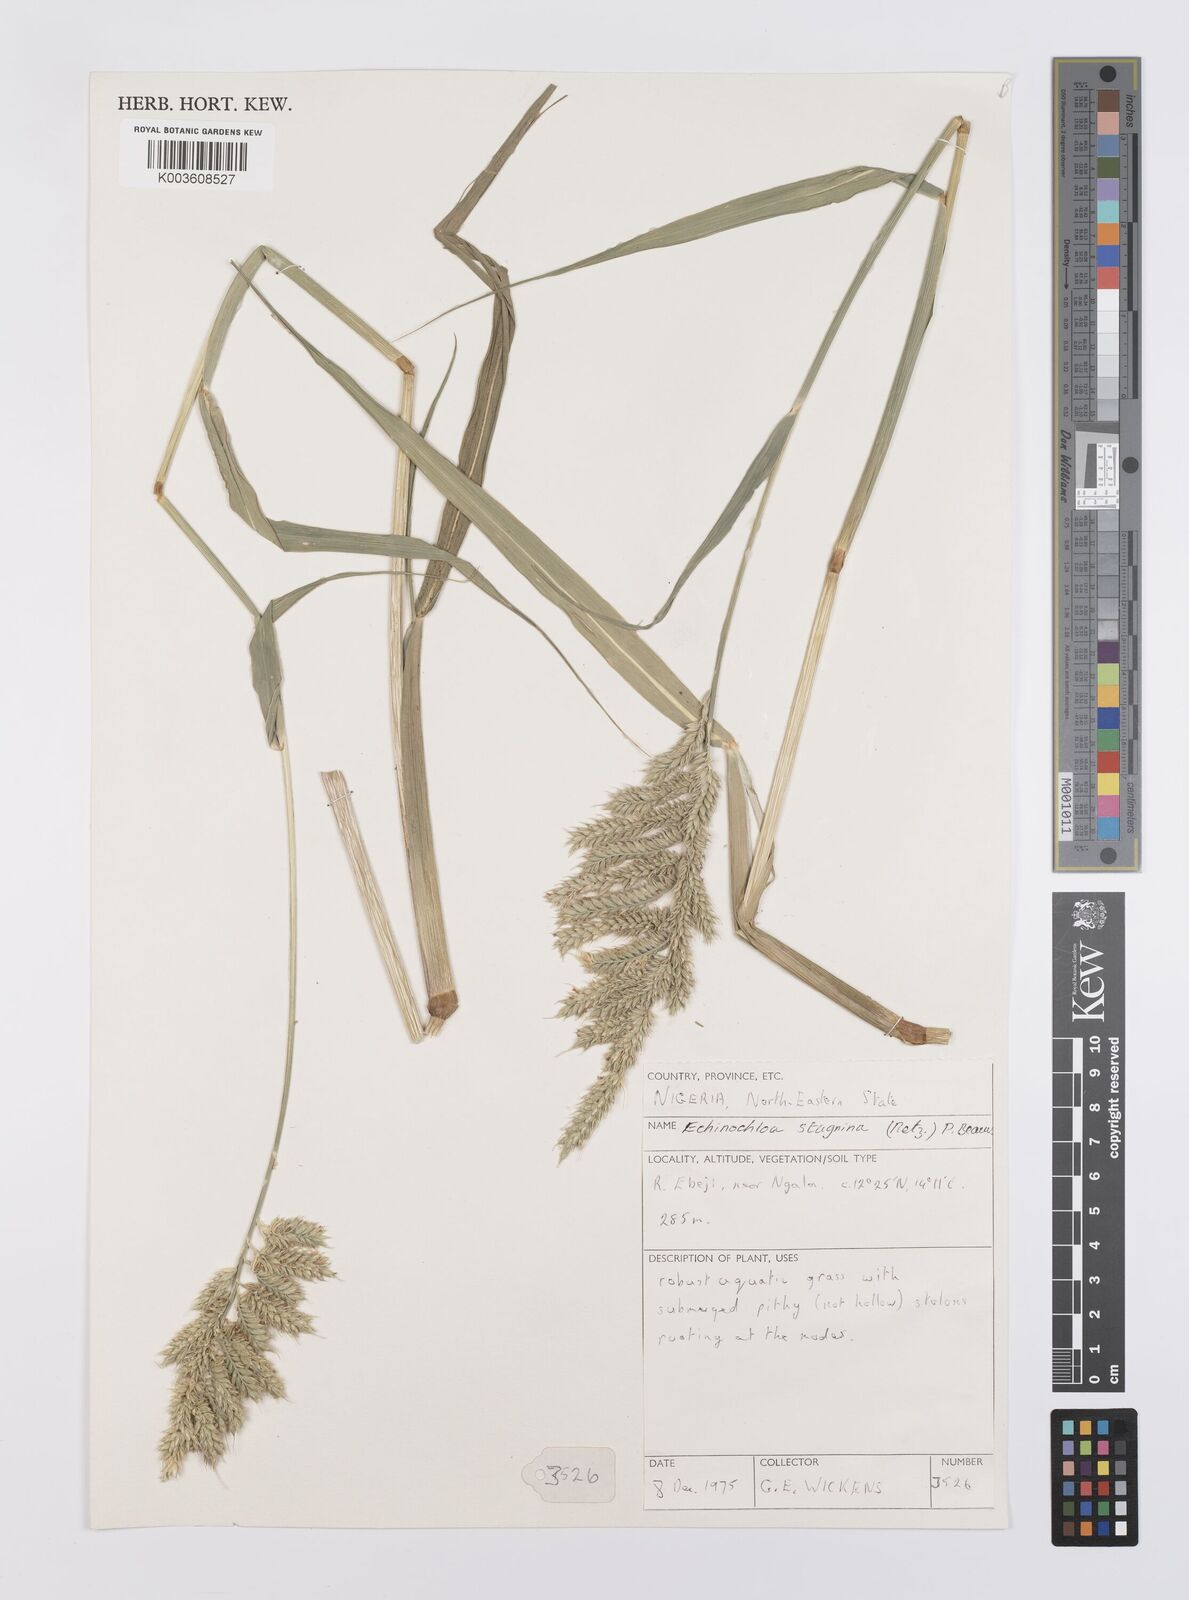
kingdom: Plantae
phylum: Tracheophyta
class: Liliopsida
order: Poales
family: Poaceae
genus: Echinochloa
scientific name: Echinochloa stagnina
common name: Burgu grass
